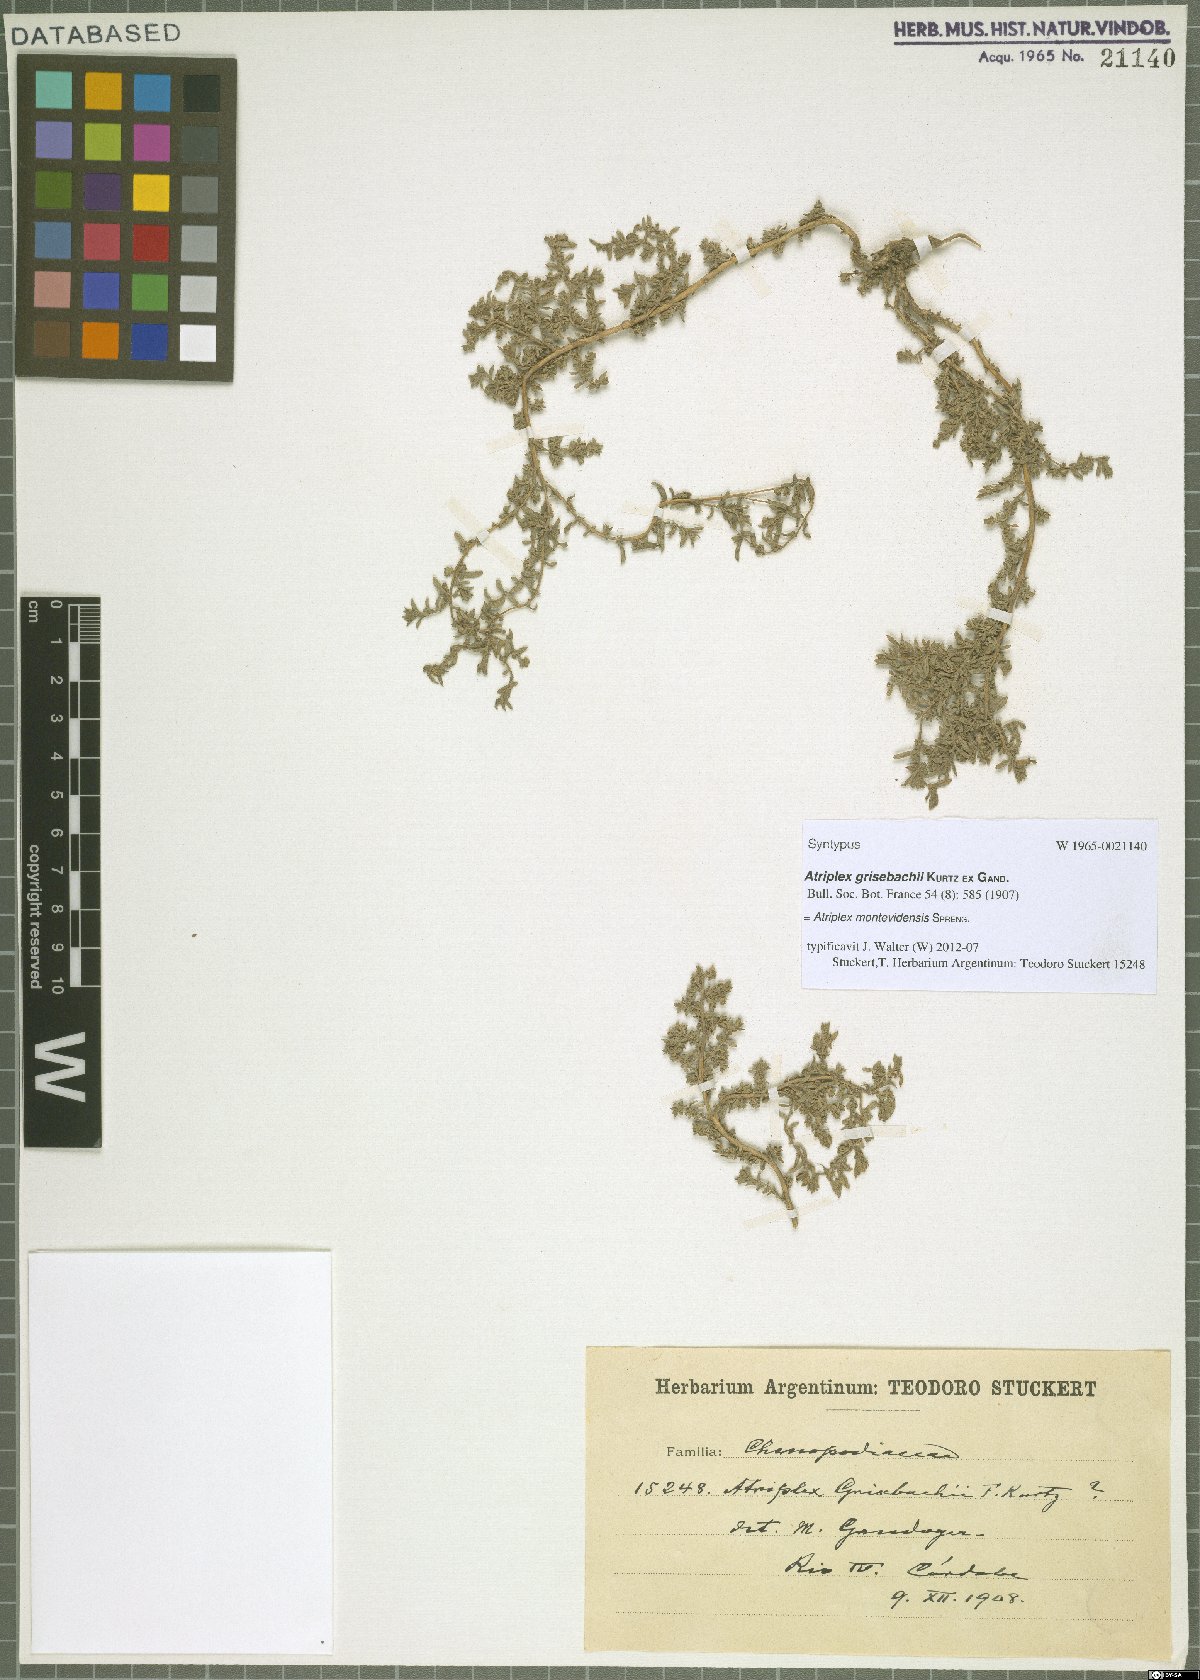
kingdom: Plantae
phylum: Tracheophyta
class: Magnoliopsida
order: Caryophyllales
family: Amaranthaceae
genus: Atriplex
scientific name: Atriplex montevidensis
